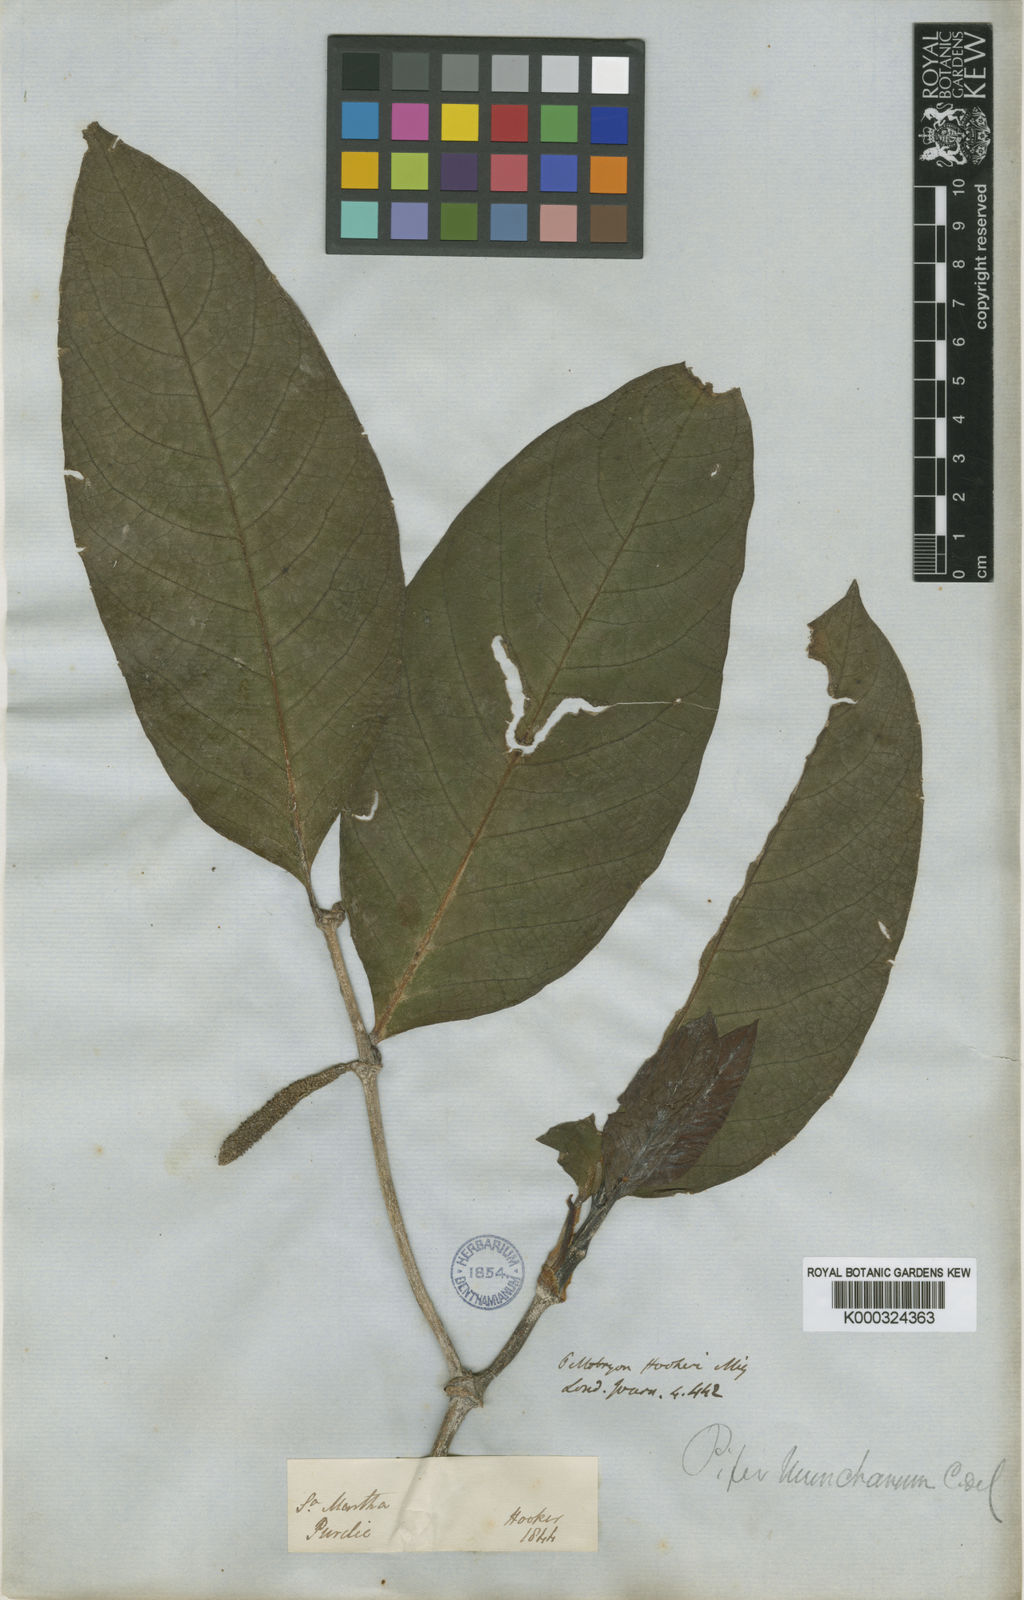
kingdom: Plantae
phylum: Tracheophyta
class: Magnoliopsida
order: Piperales
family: Piperaceae
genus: Piper
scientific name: Piper phytolaccifolium
